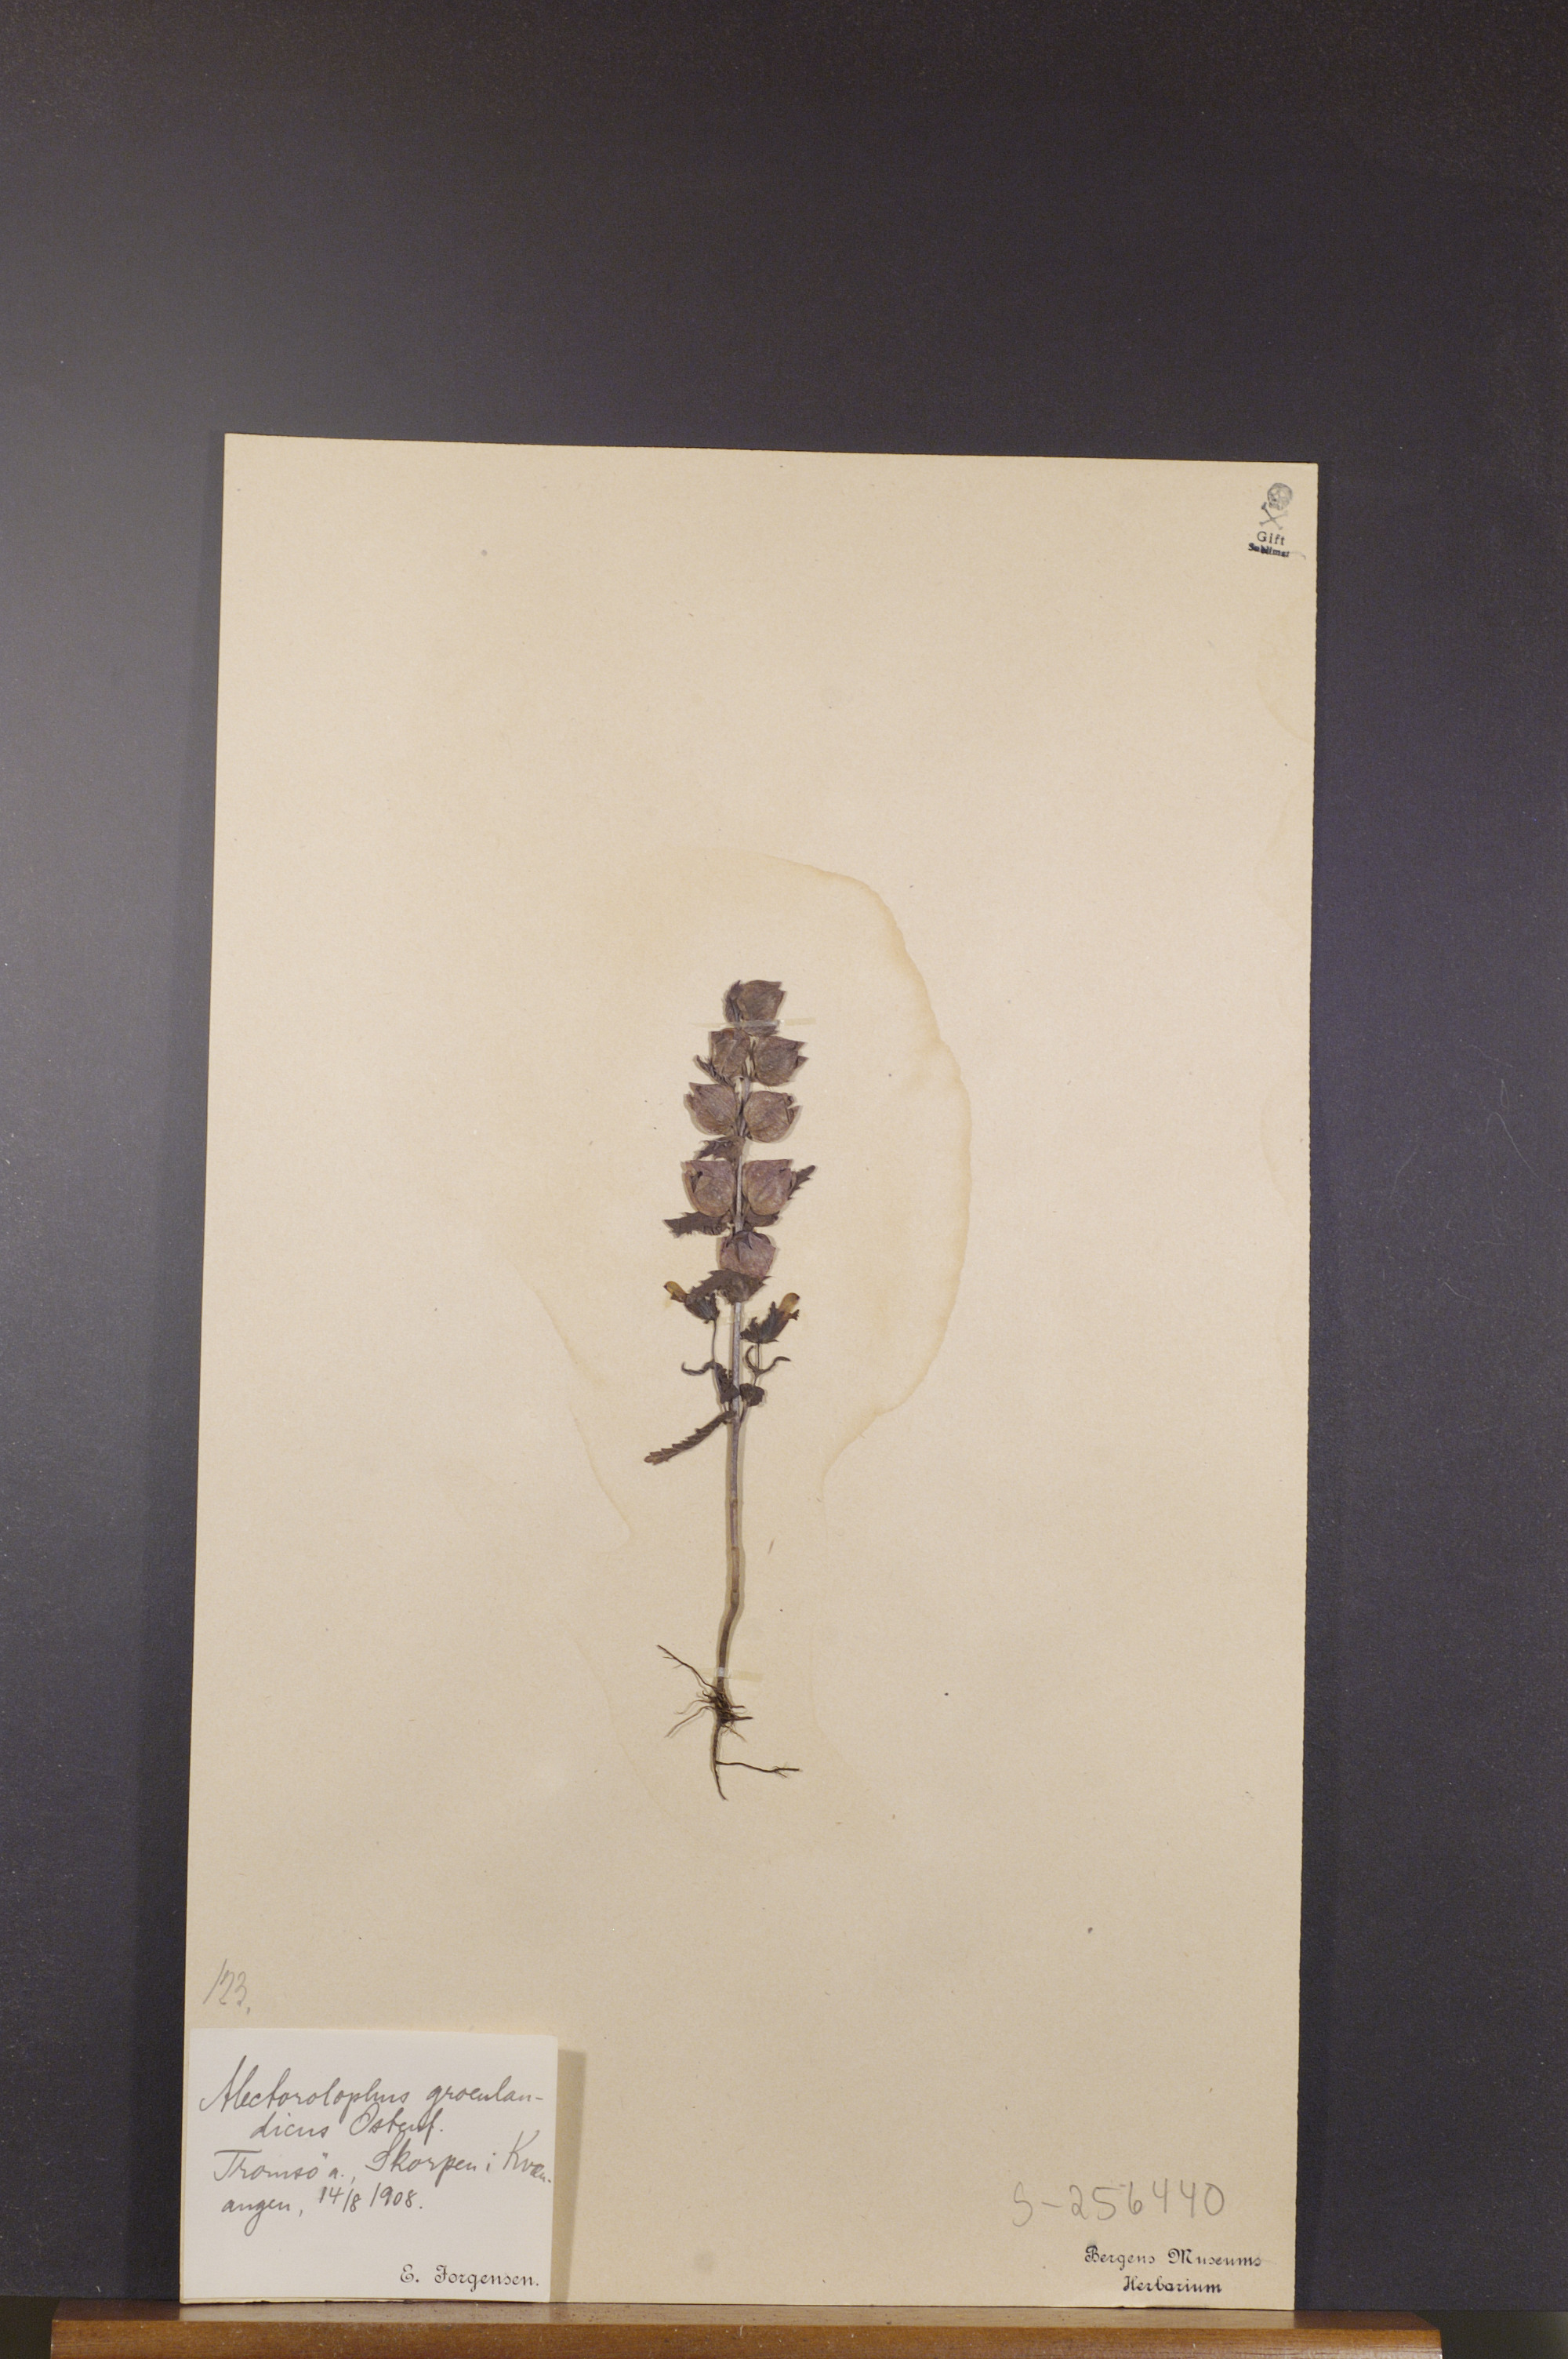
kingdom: Plantae
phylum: Tracheophyta
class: Magnoliopsida
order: Lamiales
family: Orobanchaceae
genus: Rhinanthus
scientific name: Rhinanthus groenlandicus
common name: Little yellow rattle
